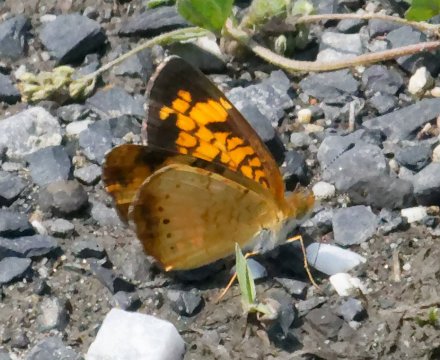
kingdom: Animalia
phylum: Arthropoda
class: Insecta
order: Lepidoptera
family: Nymphalidae
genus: Phyciodes
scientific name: Phyciodes tharos
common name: Pearl Crescent
